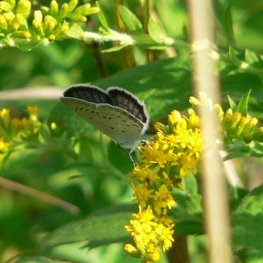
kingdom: Animalia
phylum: Arthropoda
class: Insecta
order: Lepidoptera
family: Lycaenidae
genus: Elkalyce
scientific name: Elkalyce comyntas
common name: Eastern Tailed-Blue
